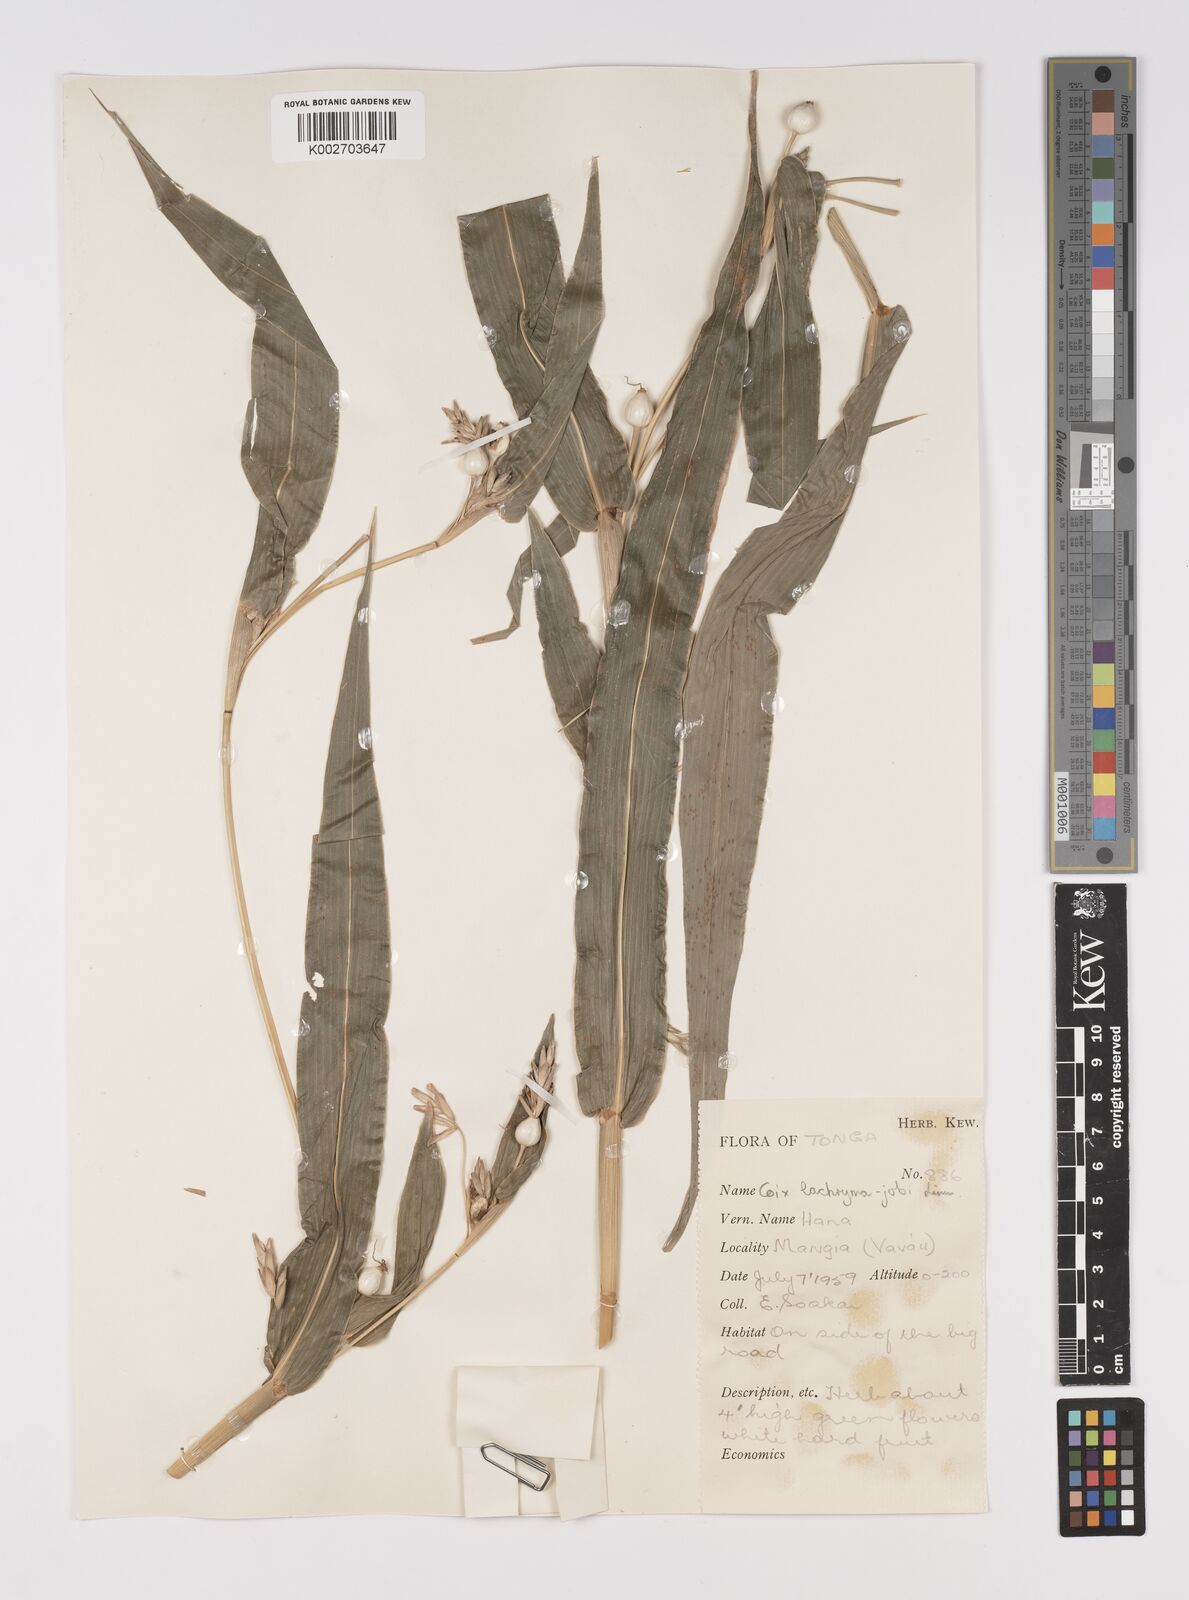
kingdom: Plantae
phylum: Tracheophyta
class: Liliopsida
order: Poales
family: Poaceae
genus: Coix
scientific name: Coix lacryma-jobi
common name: Job's tears
